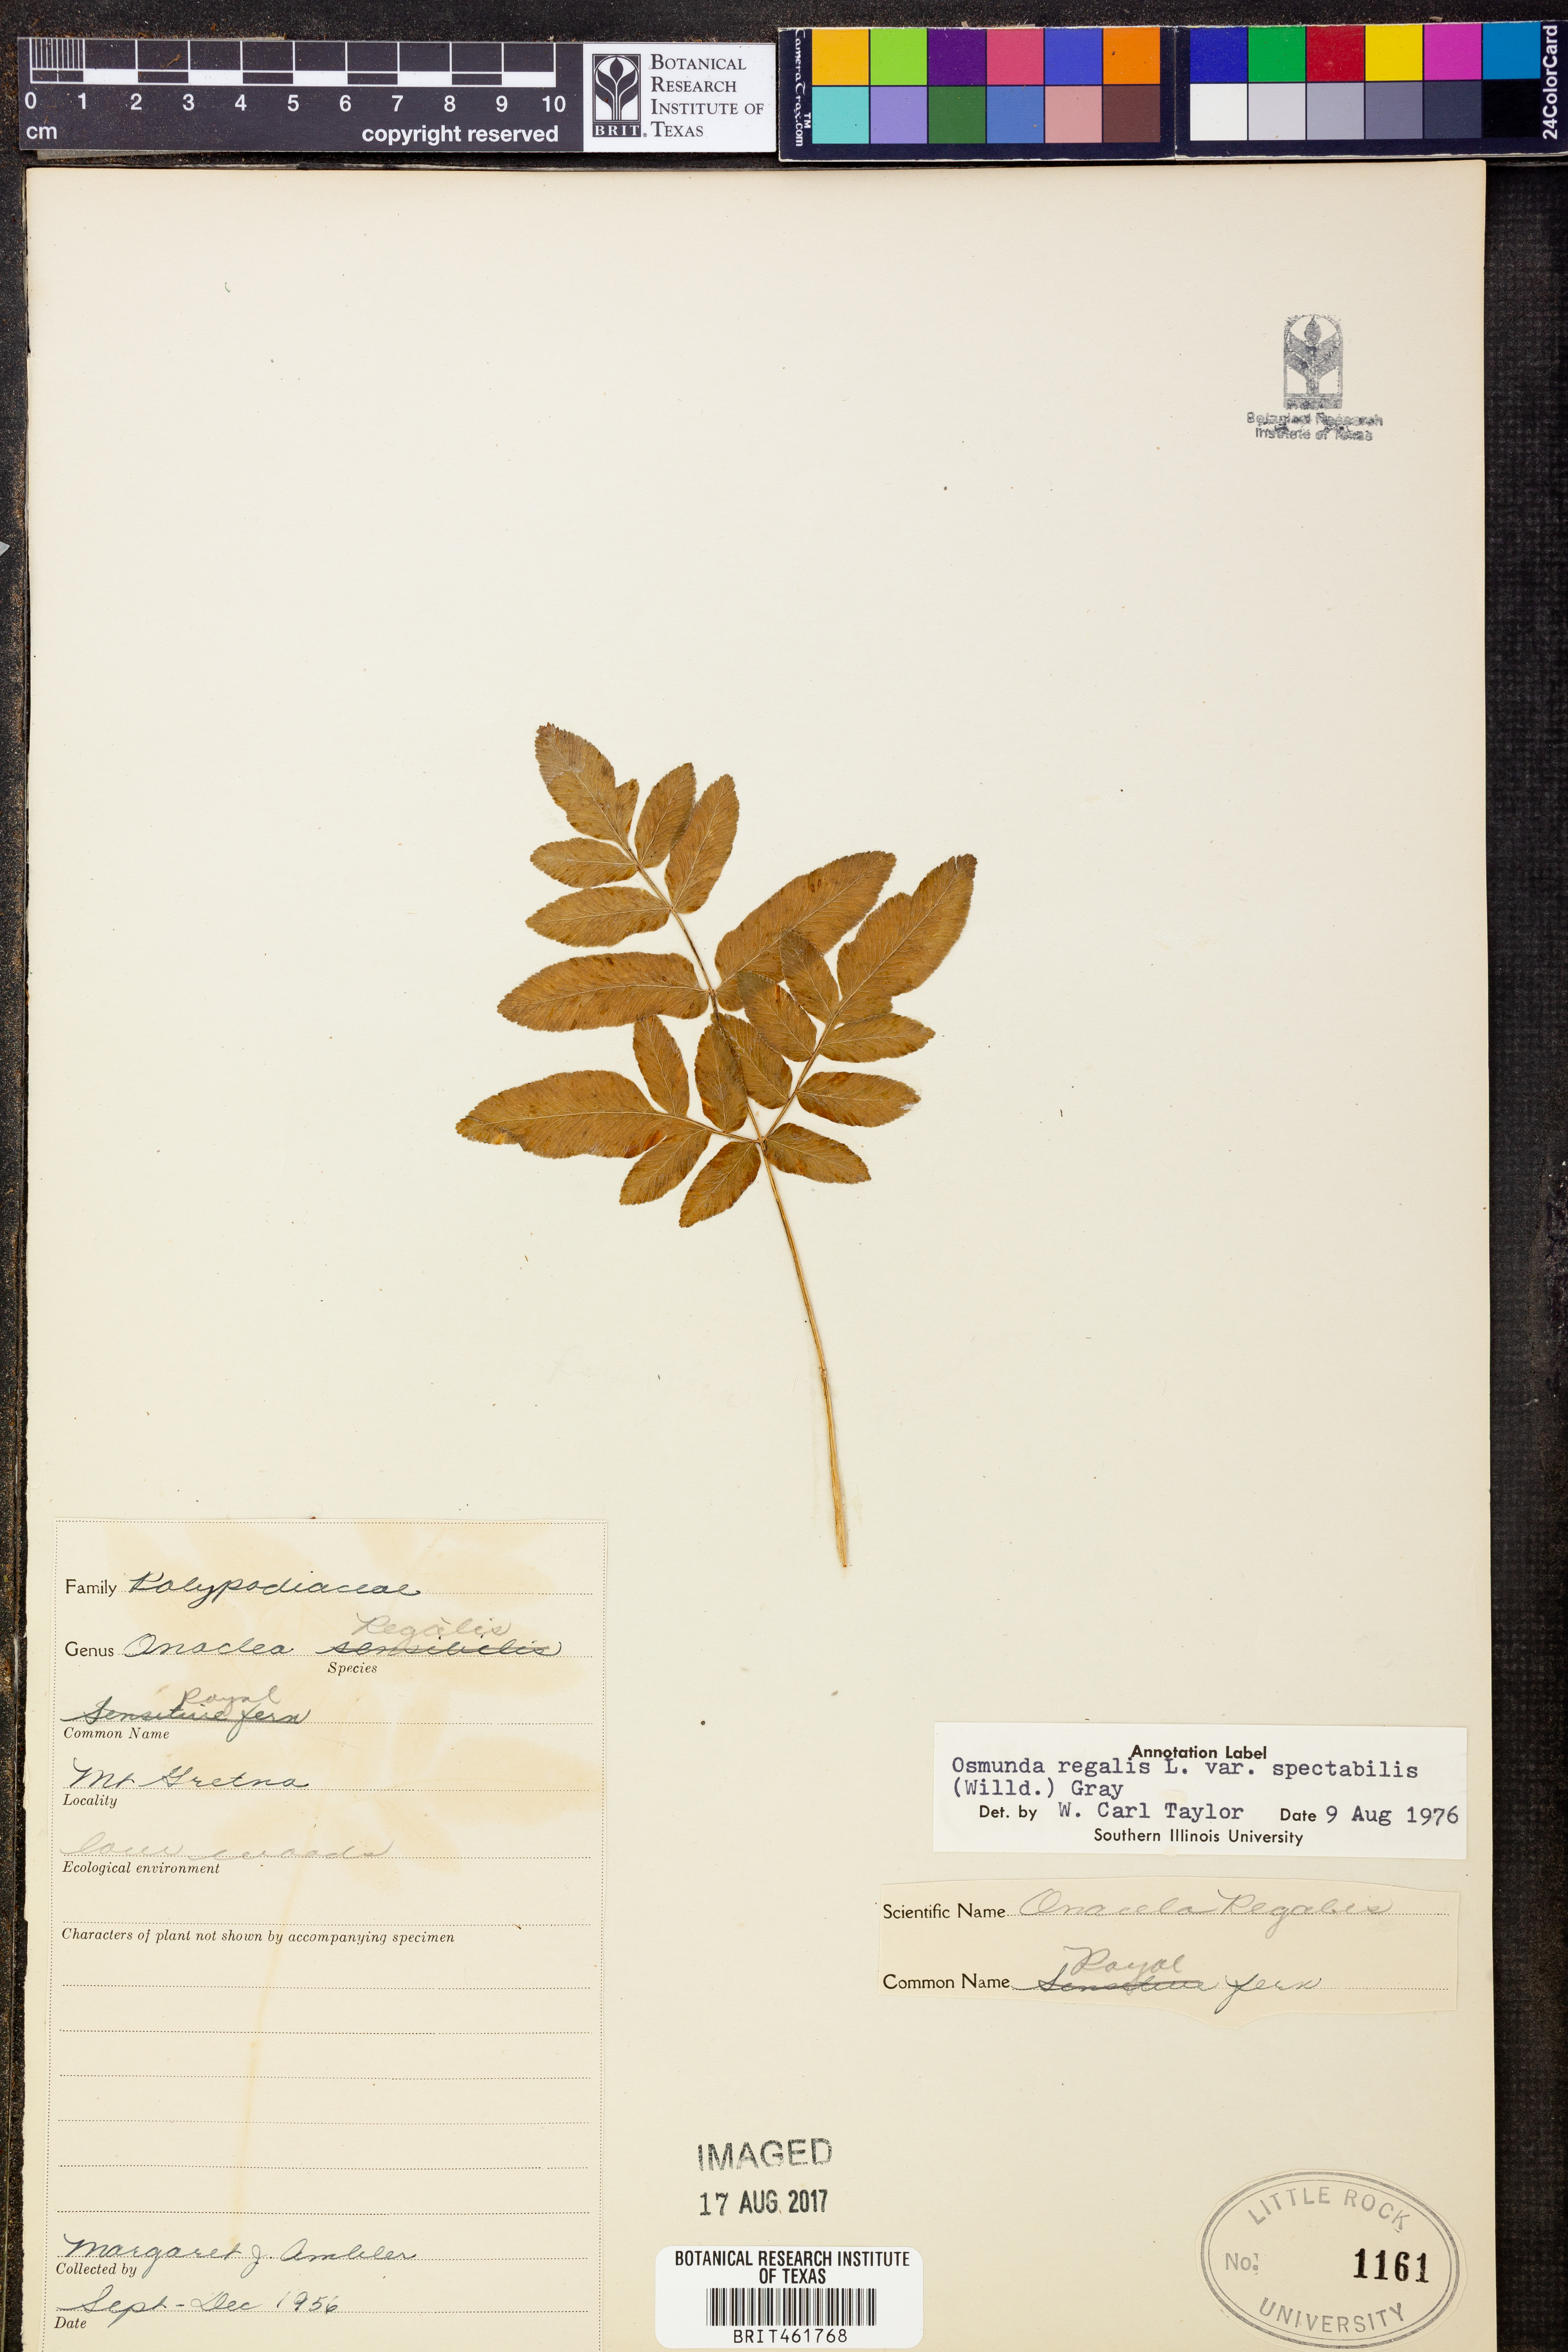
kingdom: Plantae
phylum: Tracheophyta
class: Polypodiopsida
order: Osmundales
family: Osmundaceae
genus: Osmunda
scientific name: Osmunda spectabilis
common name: American royal fern
